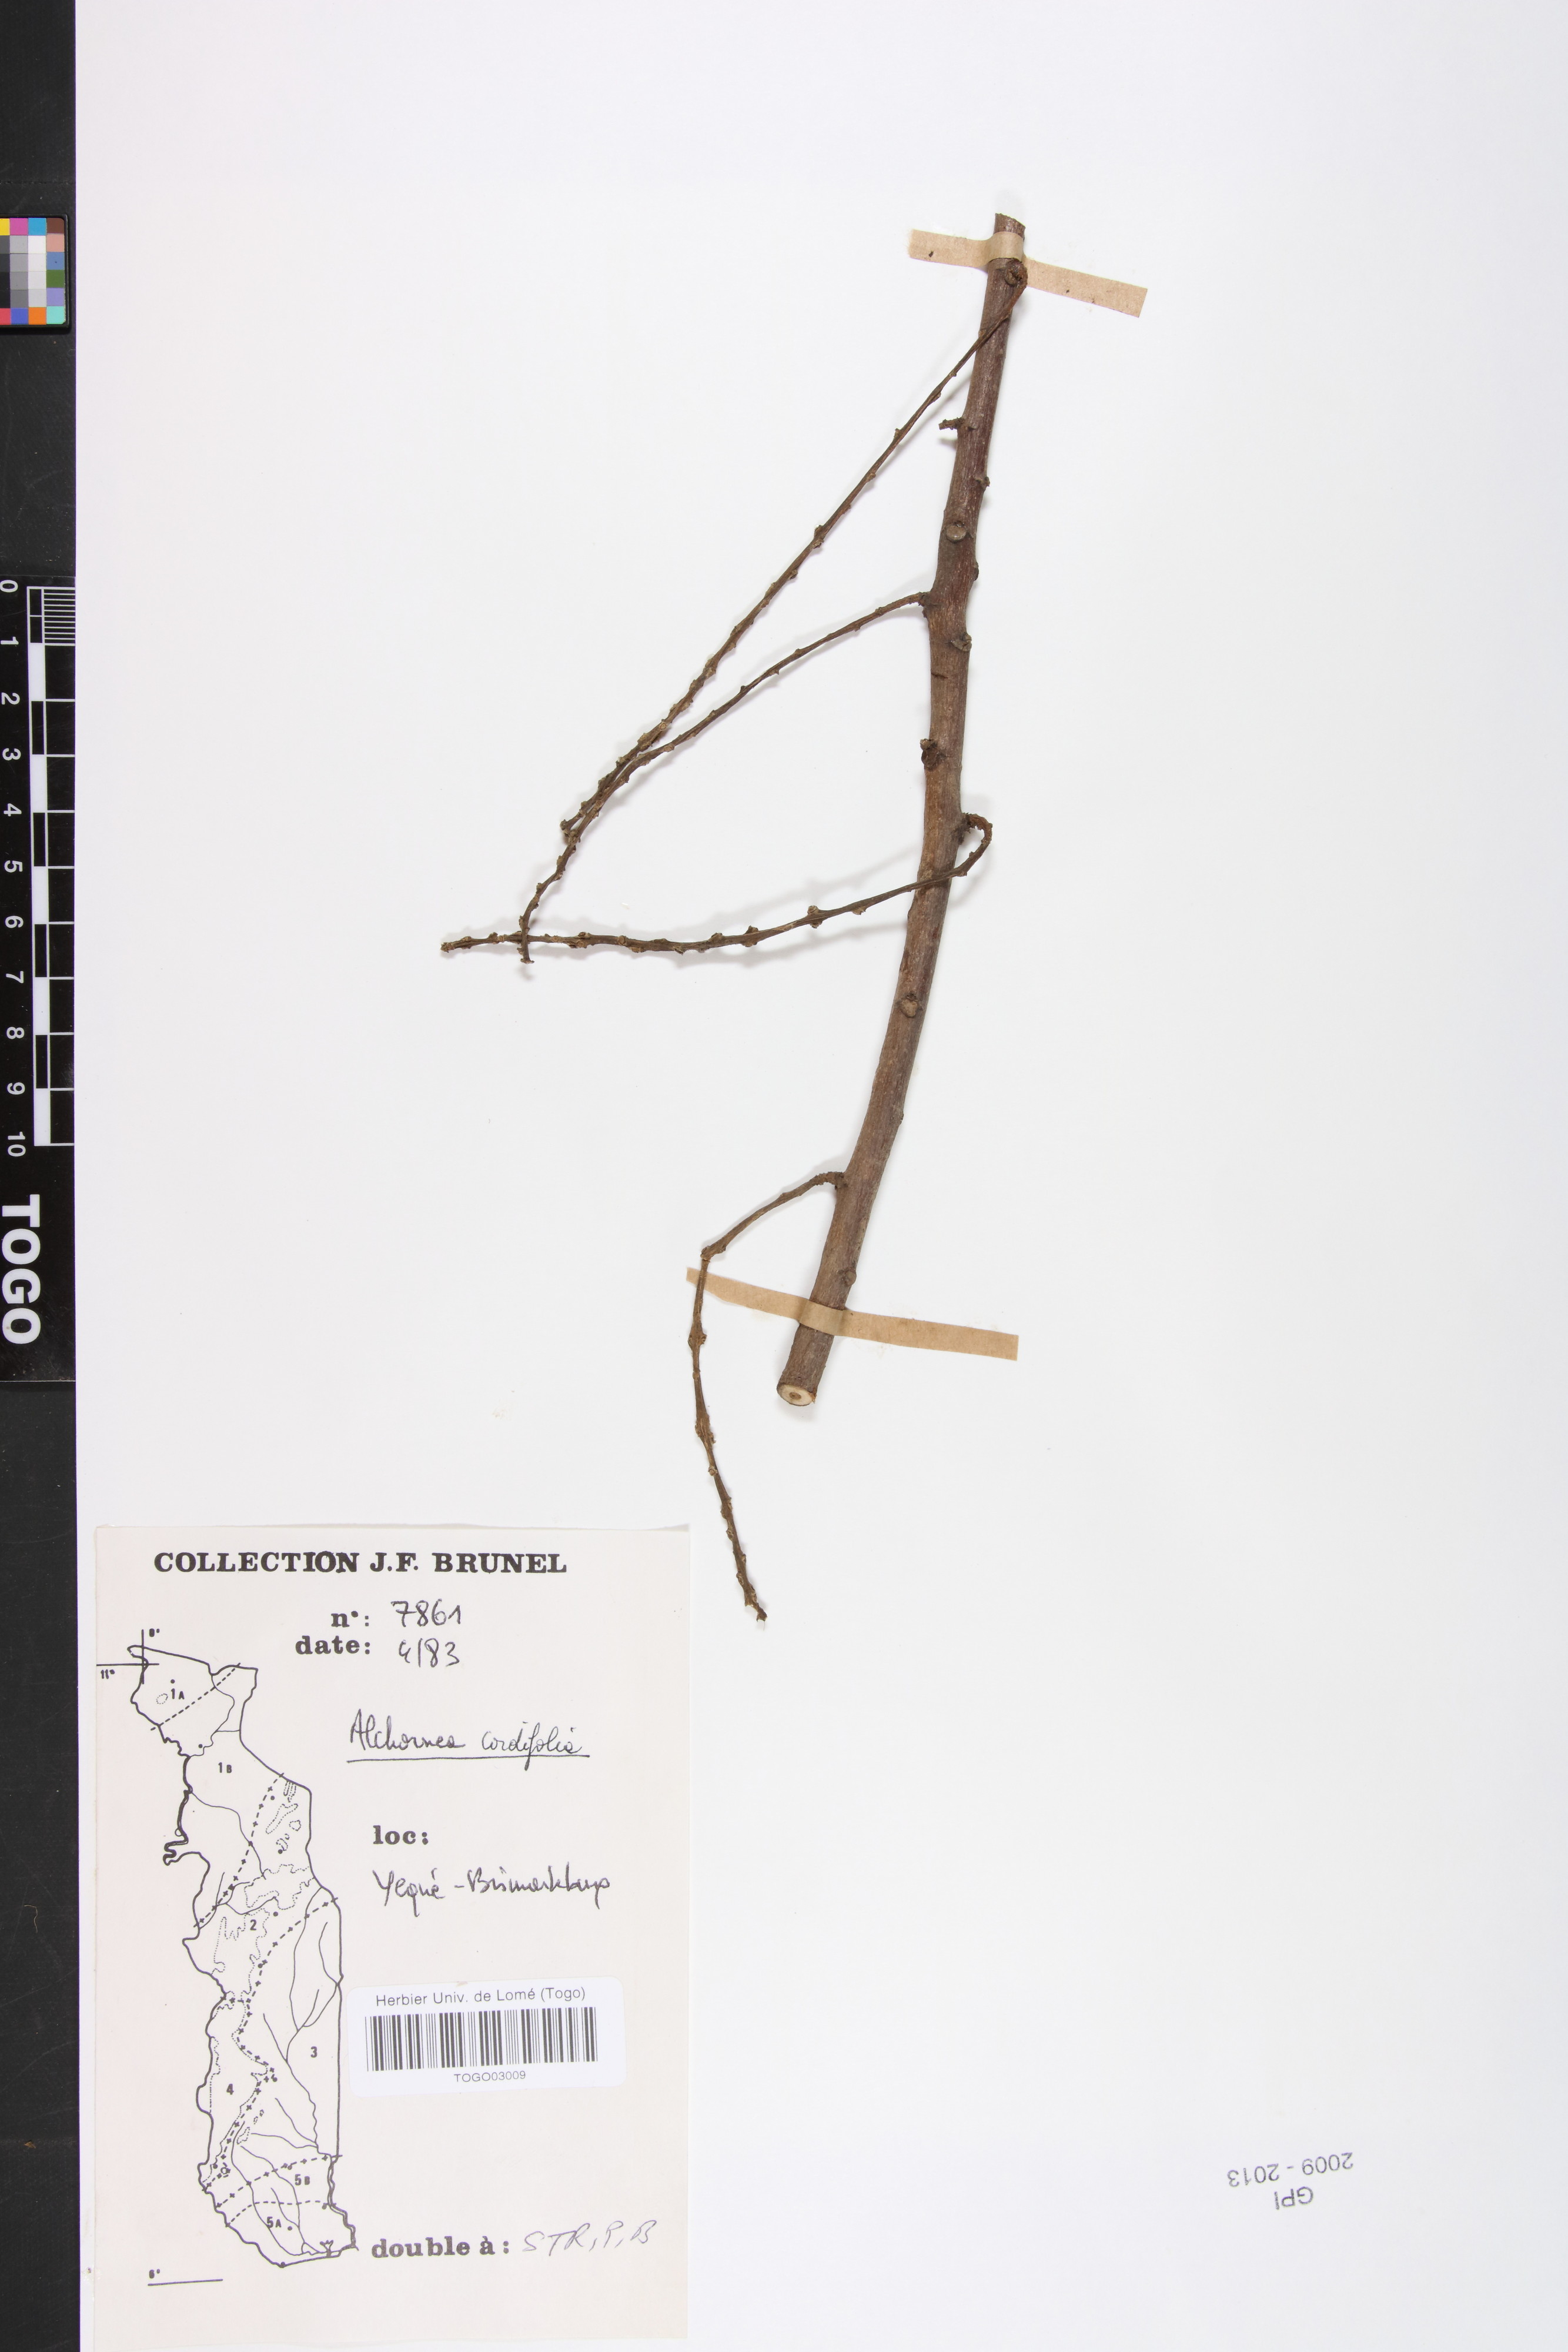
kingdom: Plantae
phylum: Tracheophyta
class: Magnoliopsida
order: Malpighiales
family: Euphorbiaceae
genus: Alchornea
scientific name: Alchornea cordifolia
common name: Christmasbush
